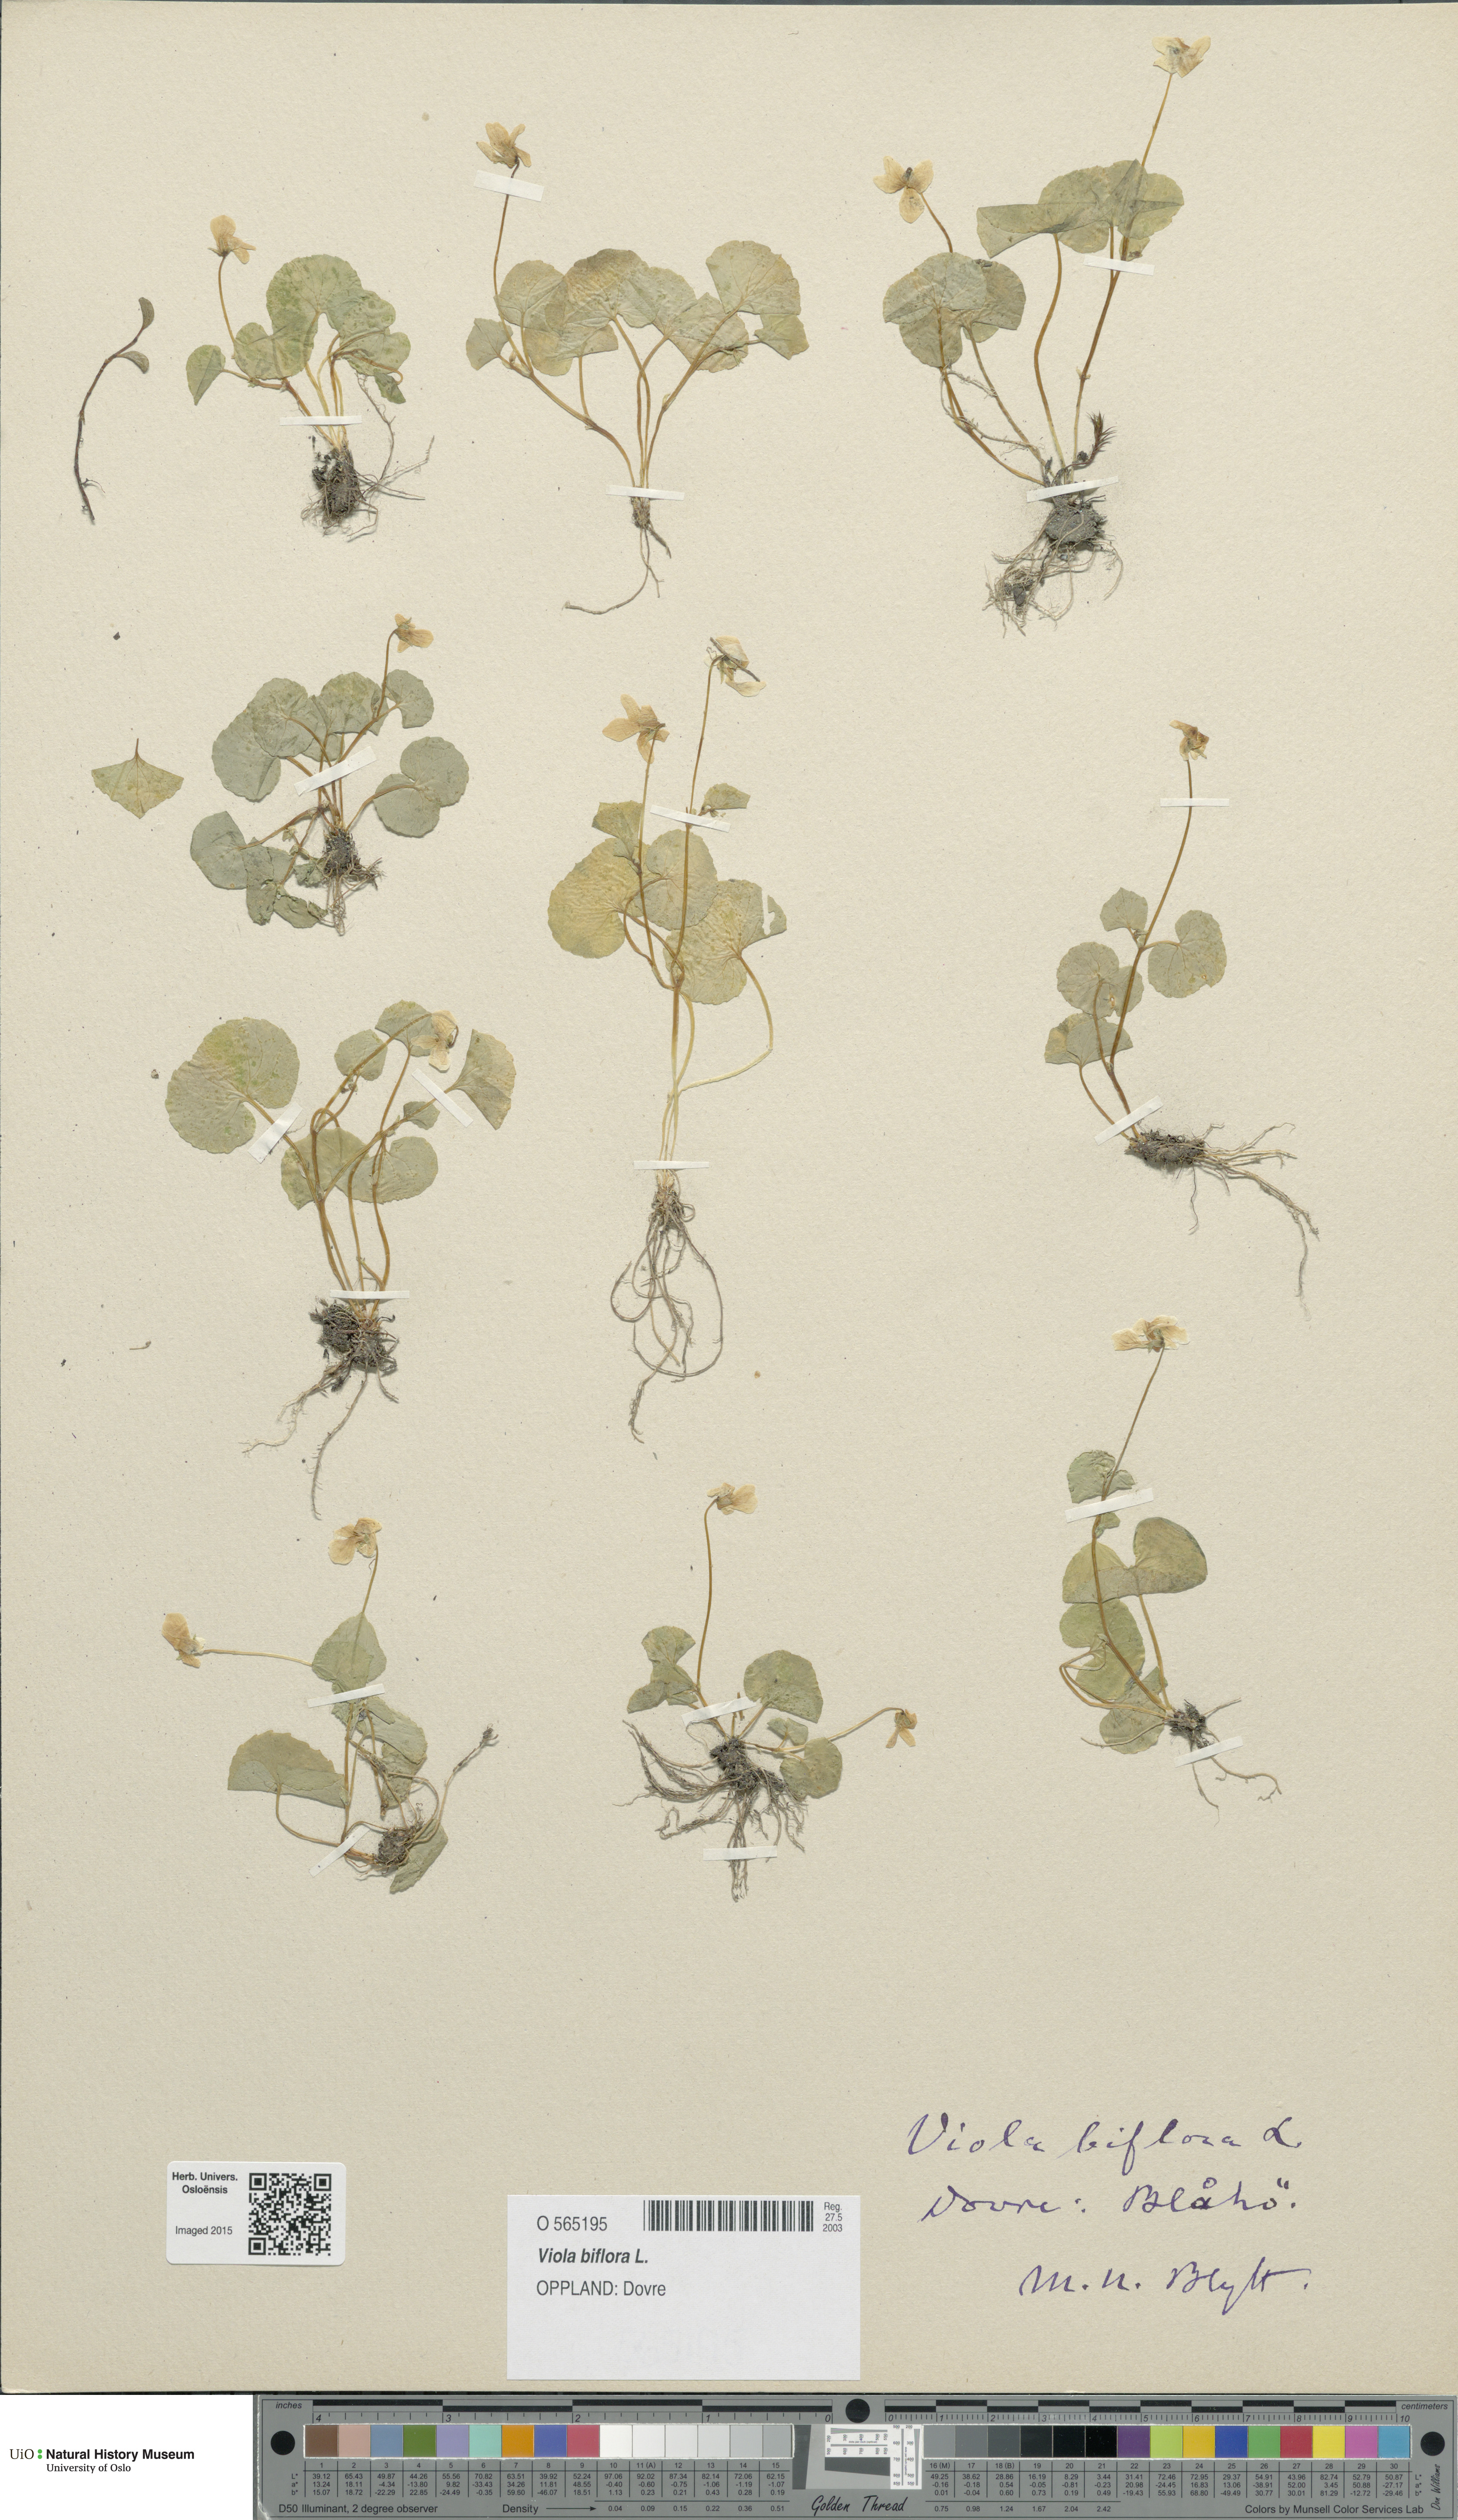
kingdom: Plantae
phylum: Tracheophyta
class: Magnoliopsida
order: Malpighiales
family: Violaceae
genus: Viola
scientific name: Viola biflora
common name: Alpine yellow violet
